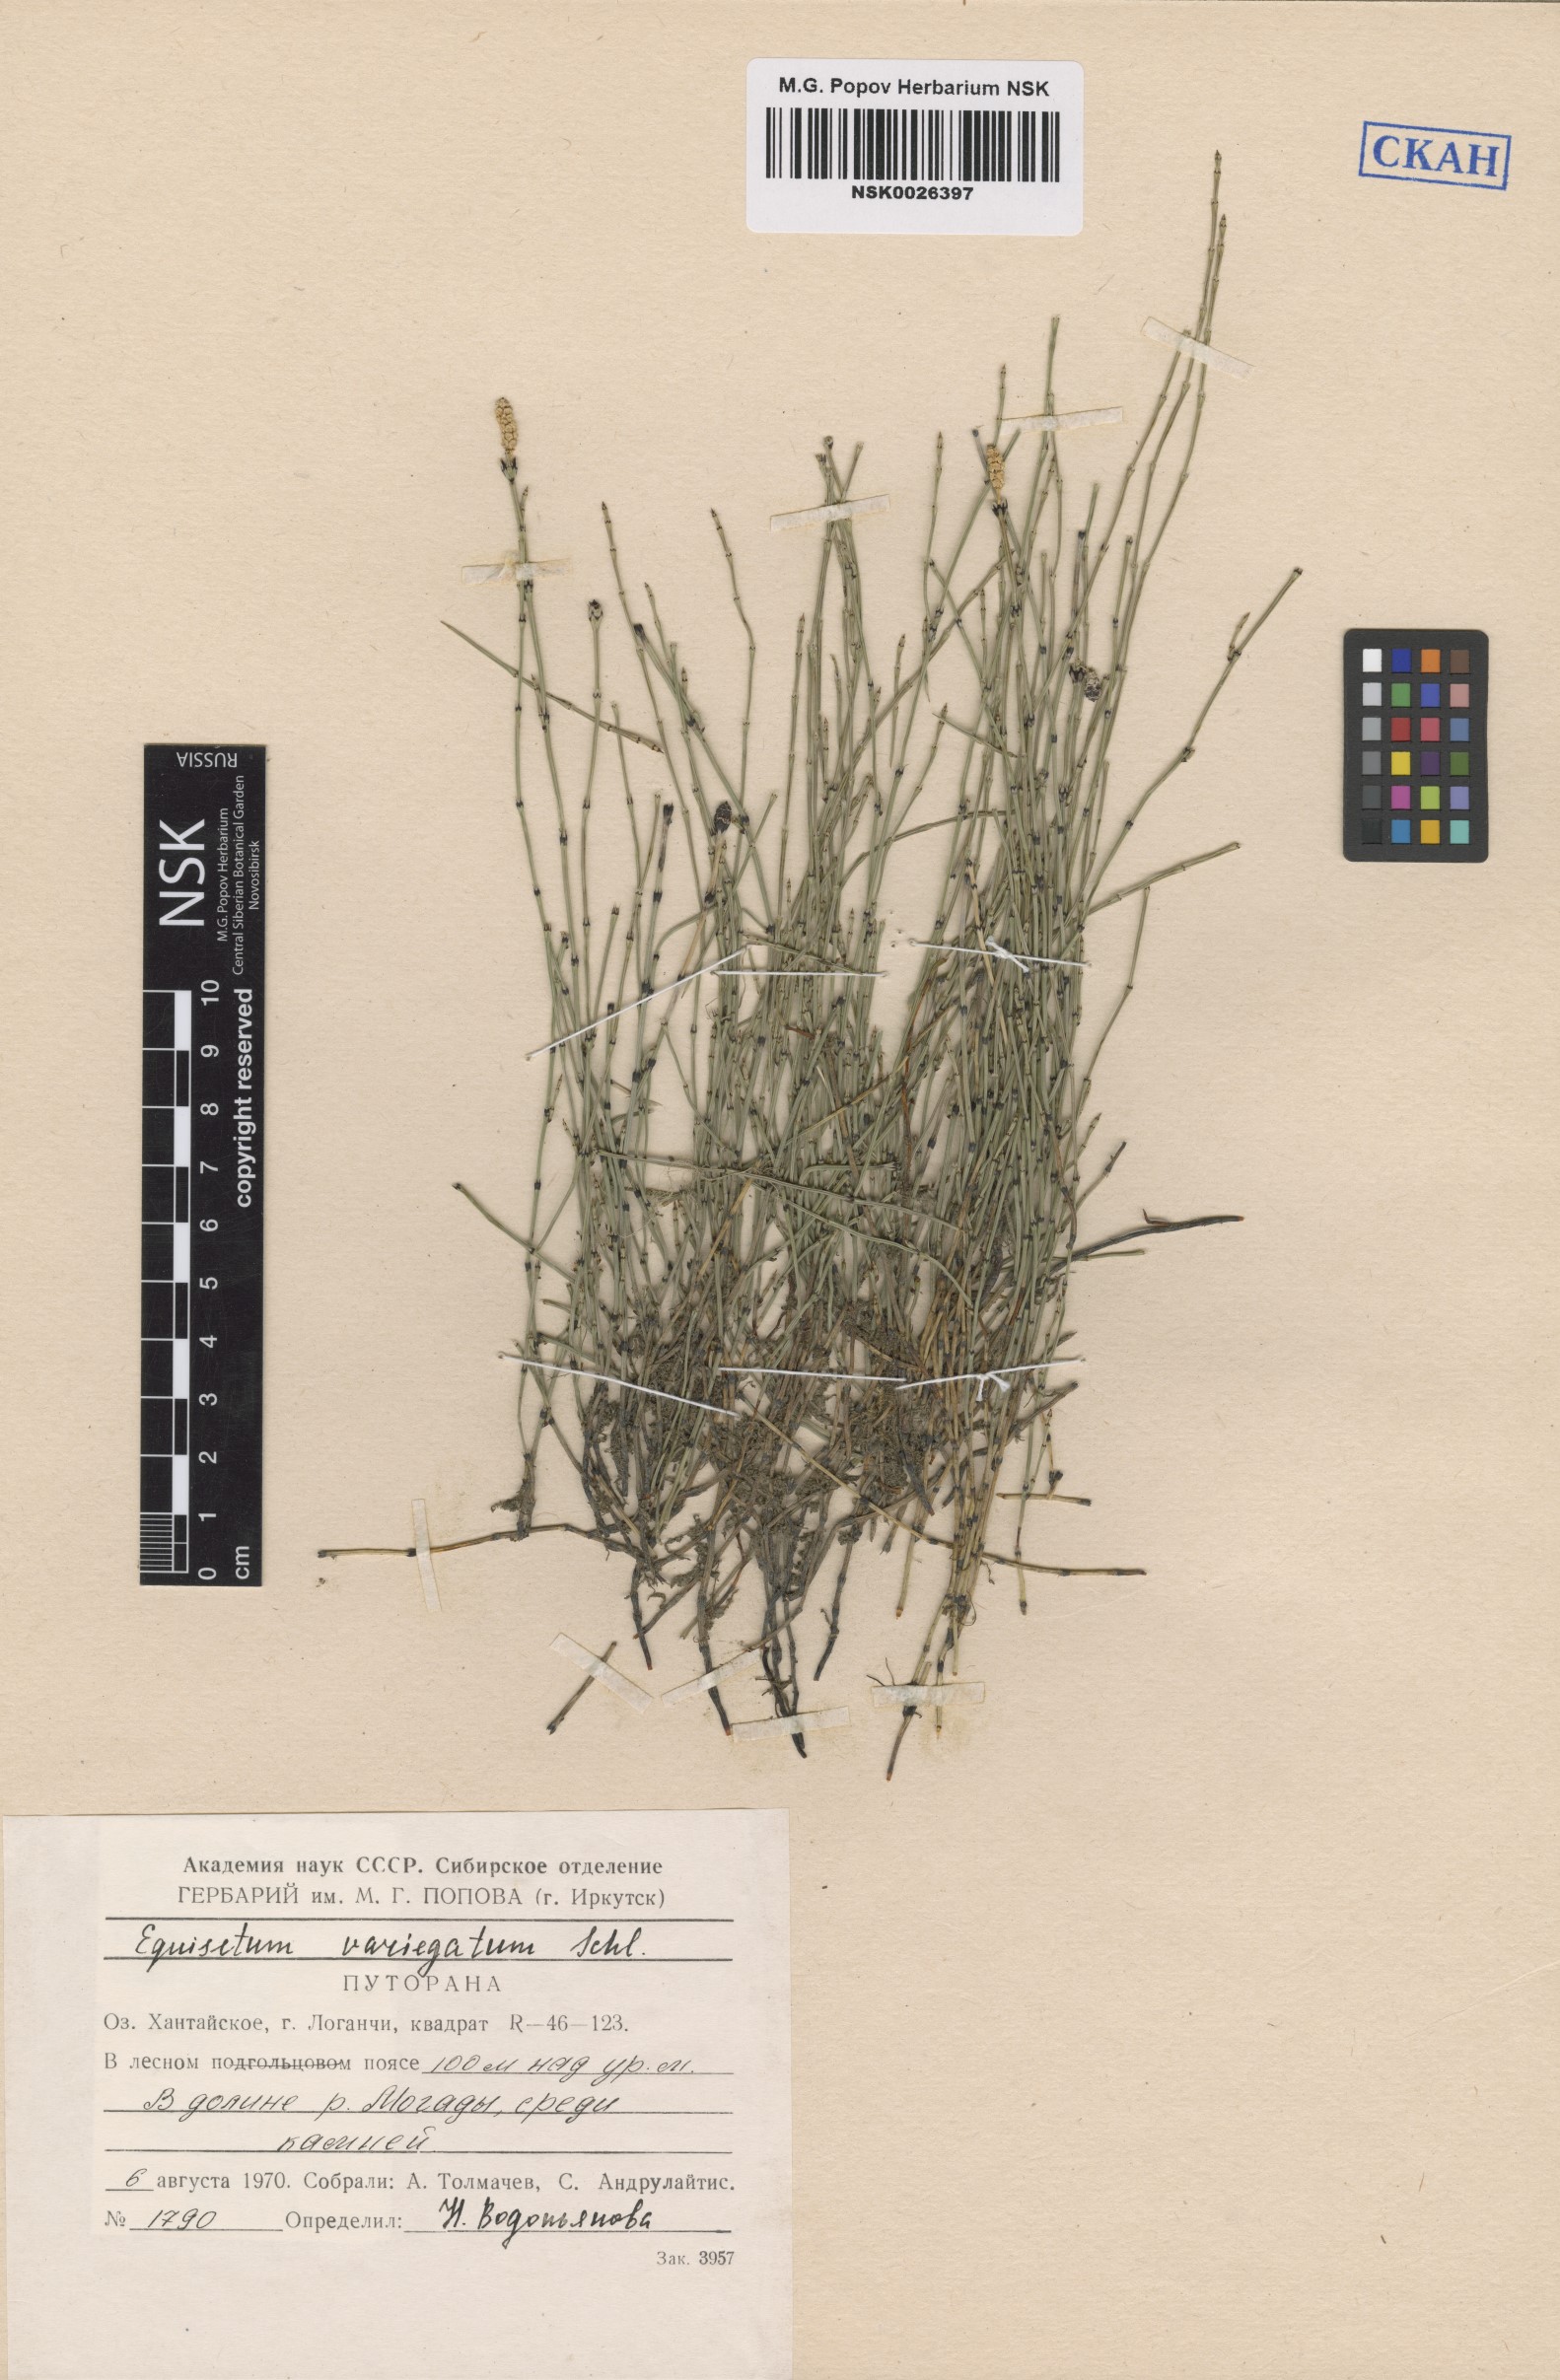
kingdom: Plantae
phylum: Tracheophyta
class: Polypodiopsida
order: Equisetales
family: Equisetaceae
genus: Equisetum
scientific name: Equisetum variegatum
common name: Variegated horsetail
